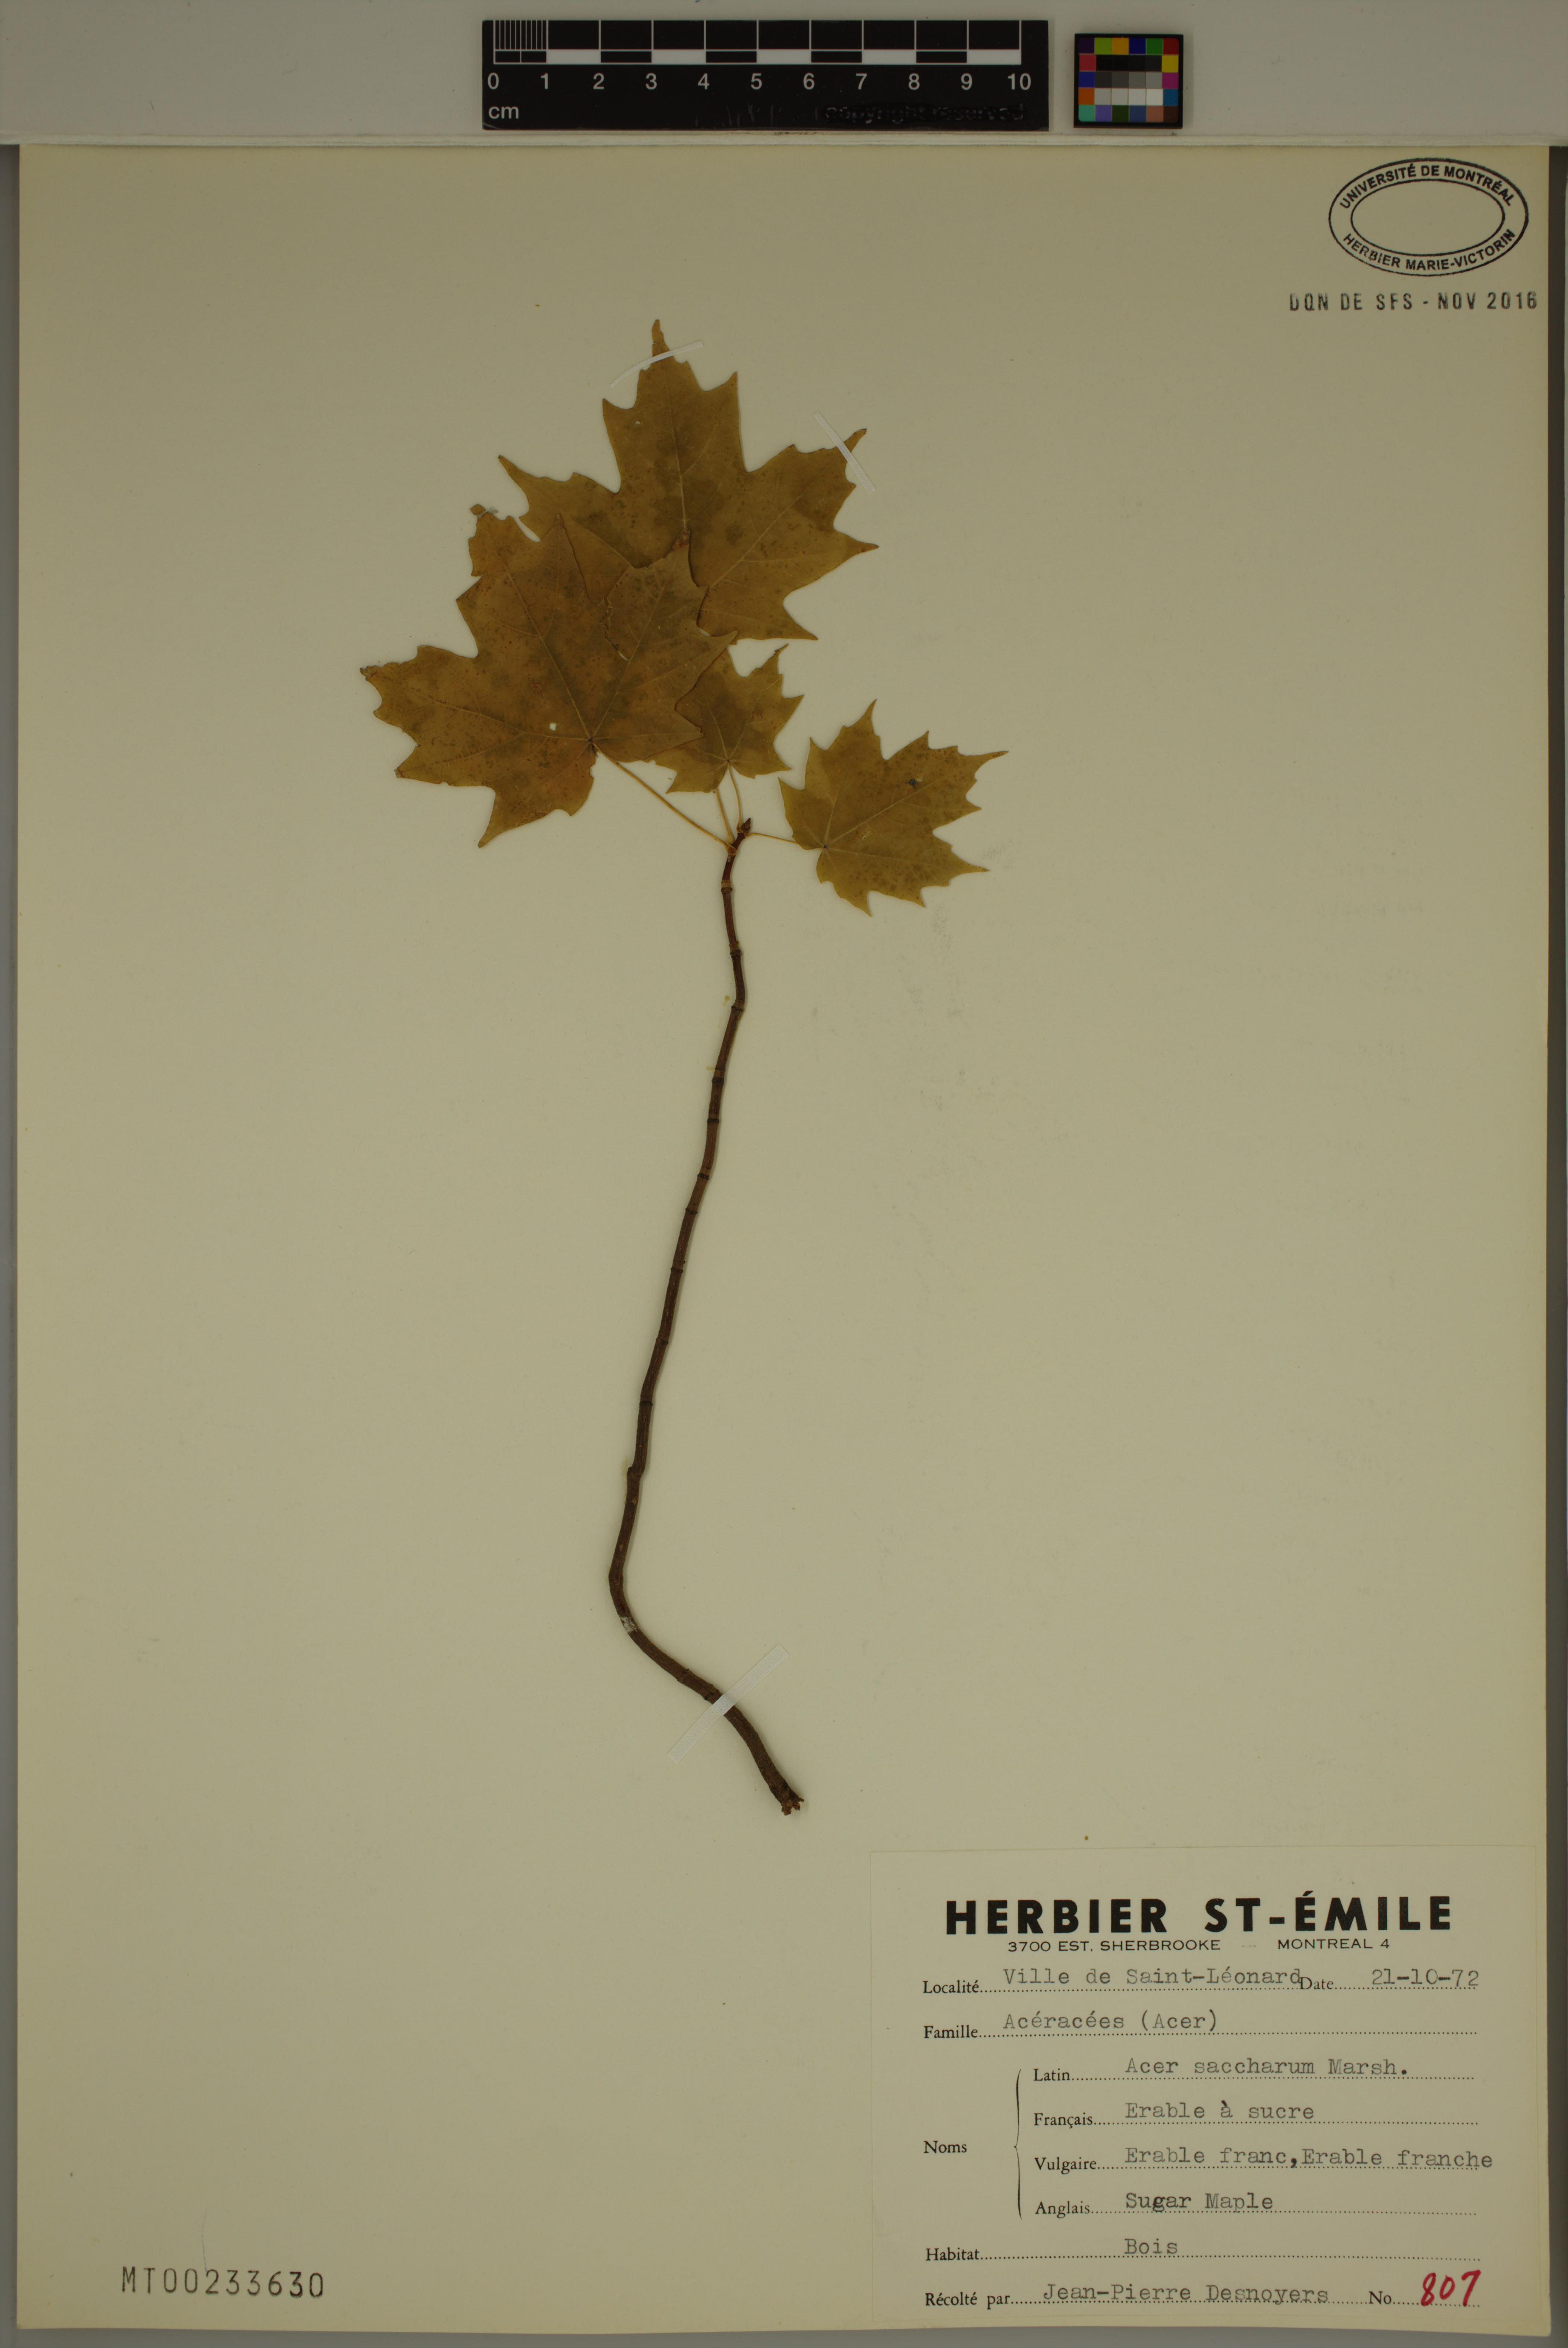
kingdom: Plantae
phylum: Tracheophyta
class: Magnoliopsida
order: Sapindales
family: Sapindaceae
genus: Acer
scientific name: Acer saccharum
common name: Sugar maple
